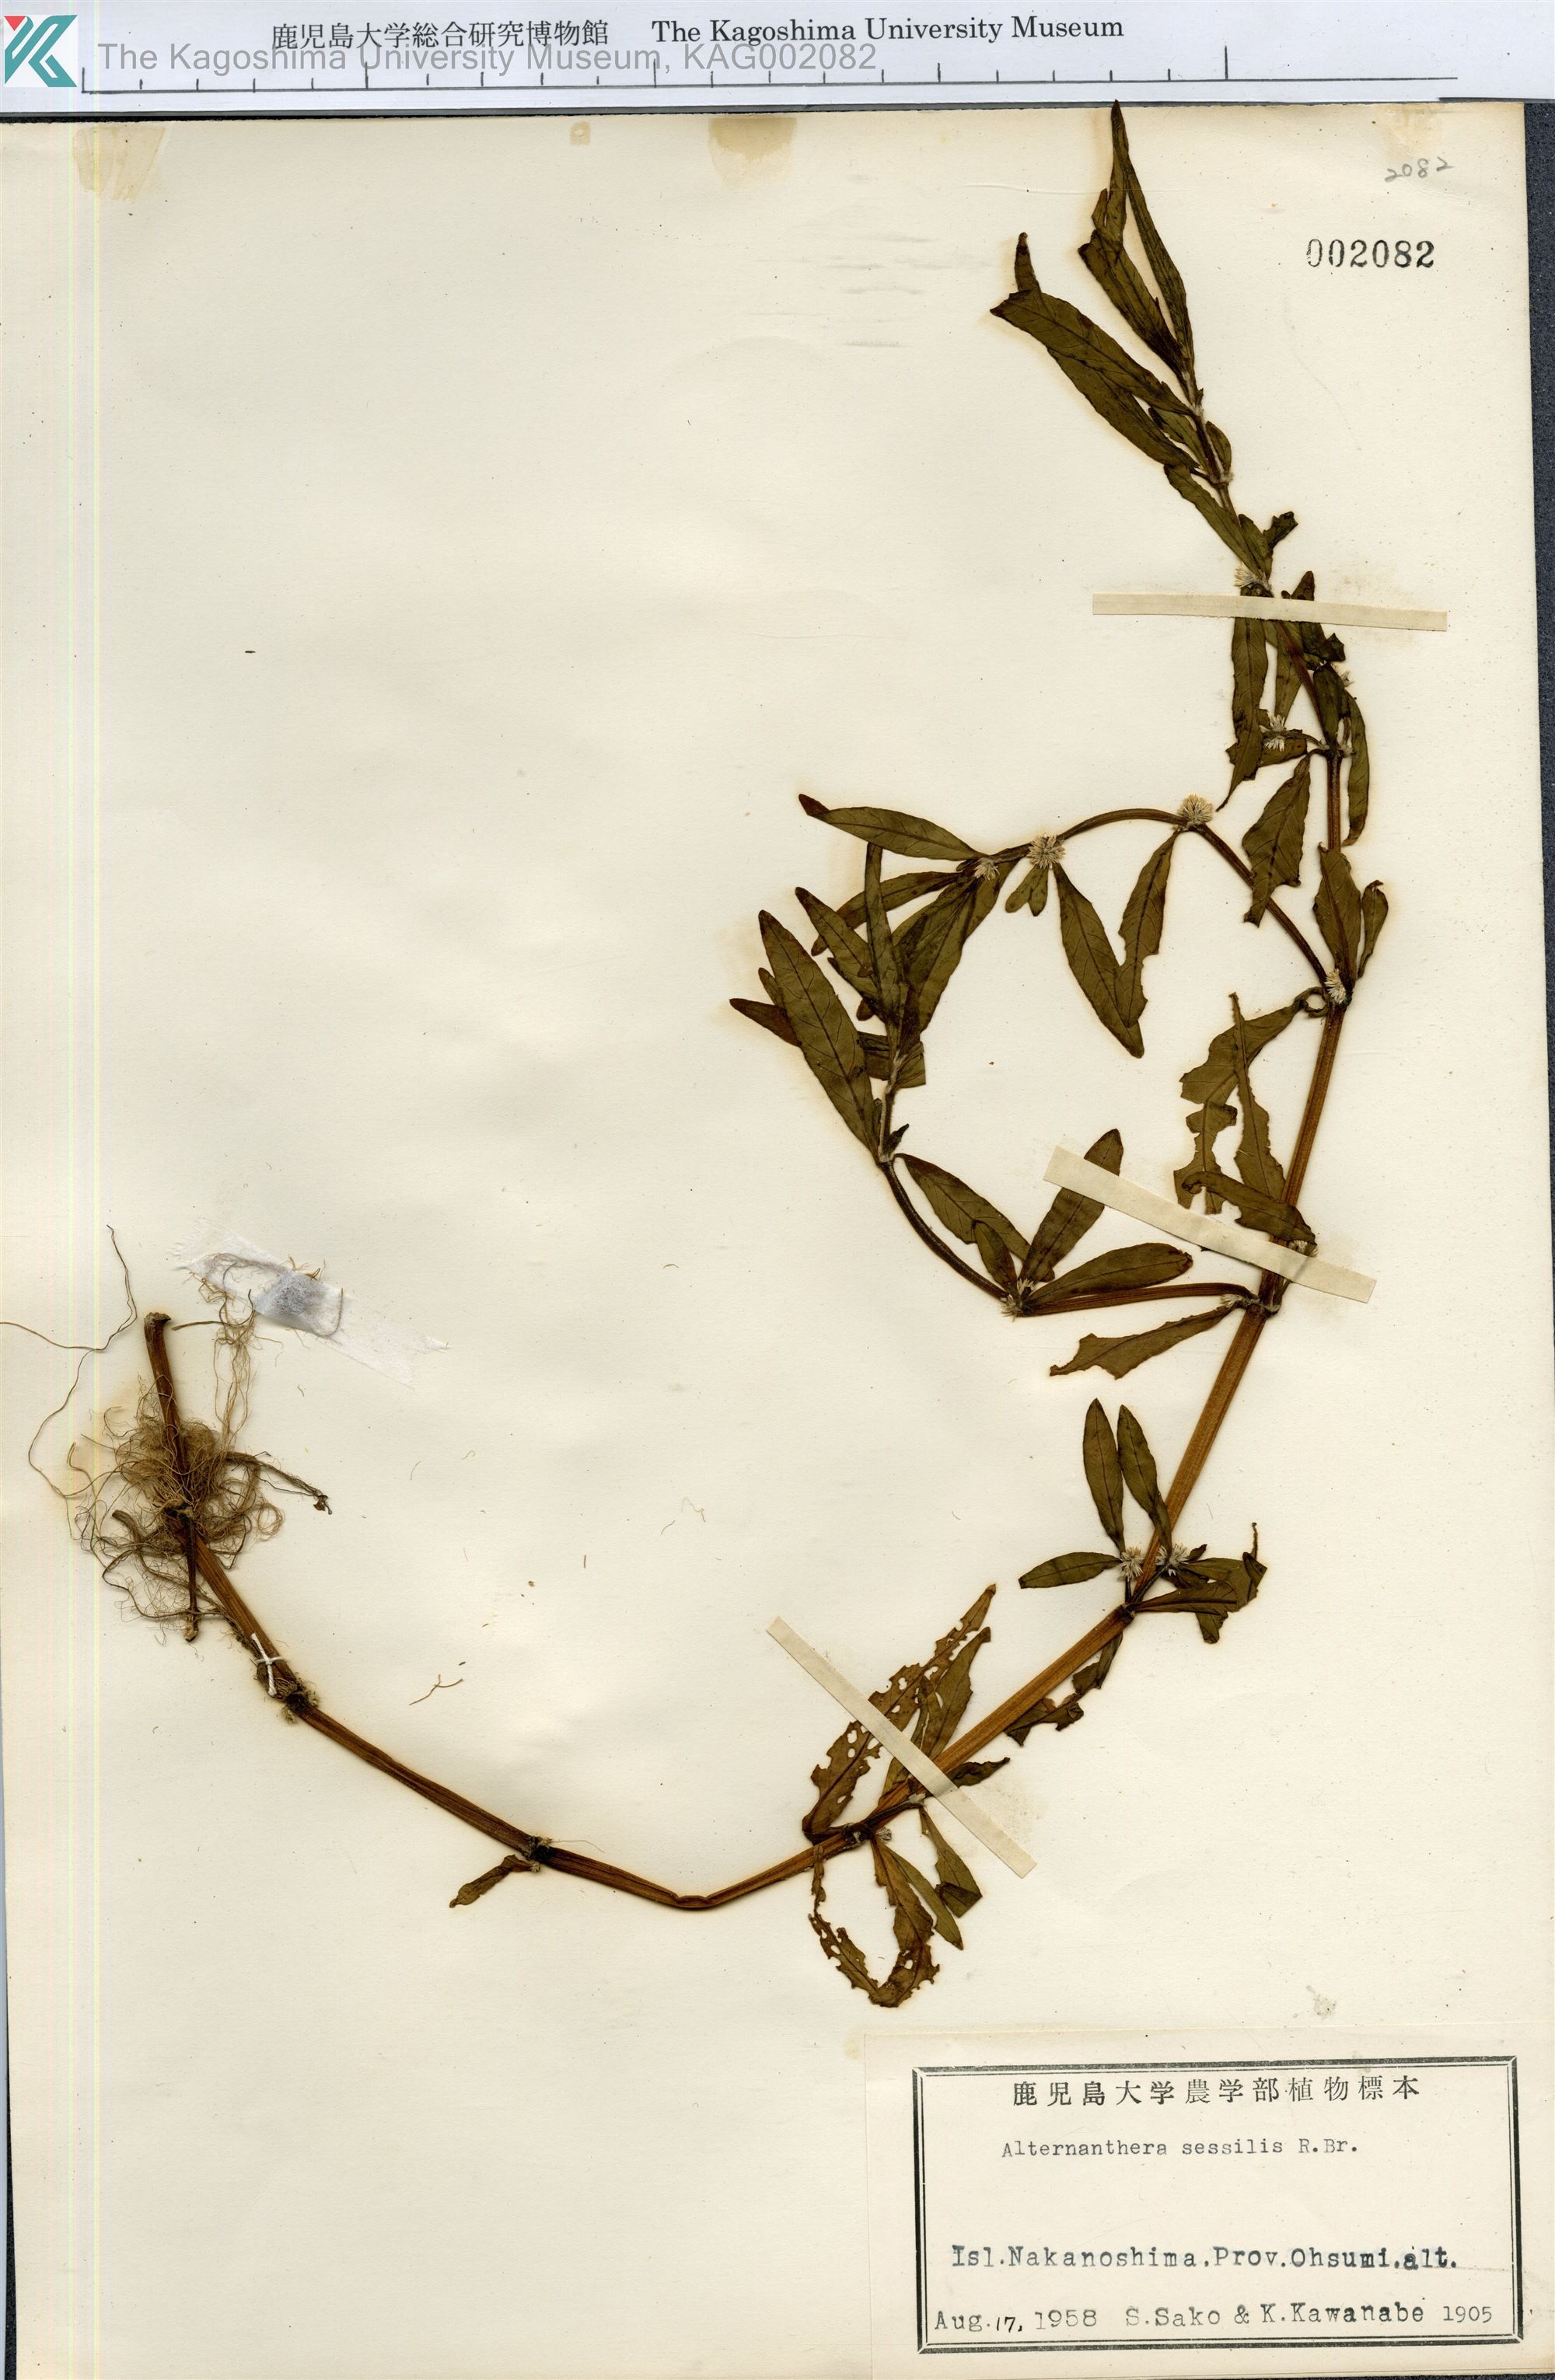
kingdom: Plantae
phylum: Tracheophyta
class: Magnoliopsida
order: Caryophyllales
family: Amaranthaceae
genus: Alternanthera
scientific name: Alternanthera sessilis
